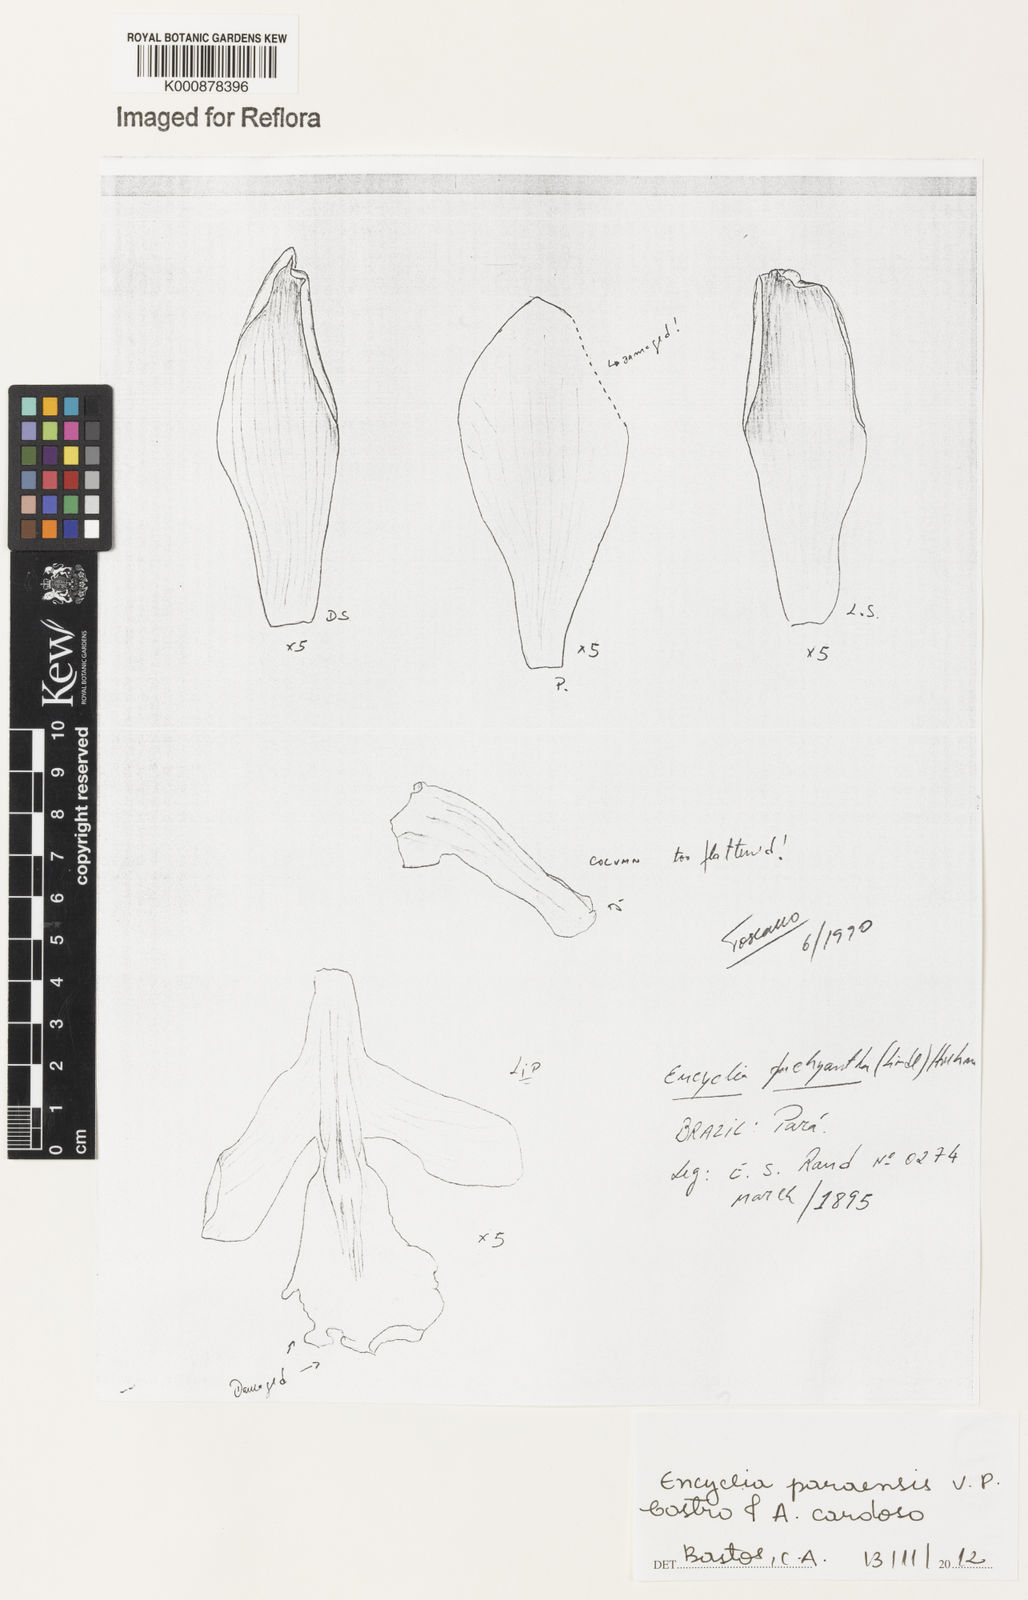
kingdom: Plantae
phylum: Tracheophyta
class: Liliopsida
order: Asparagales
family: Orchidaceae
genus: Encyclia
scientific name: Encyclia pachyantha
